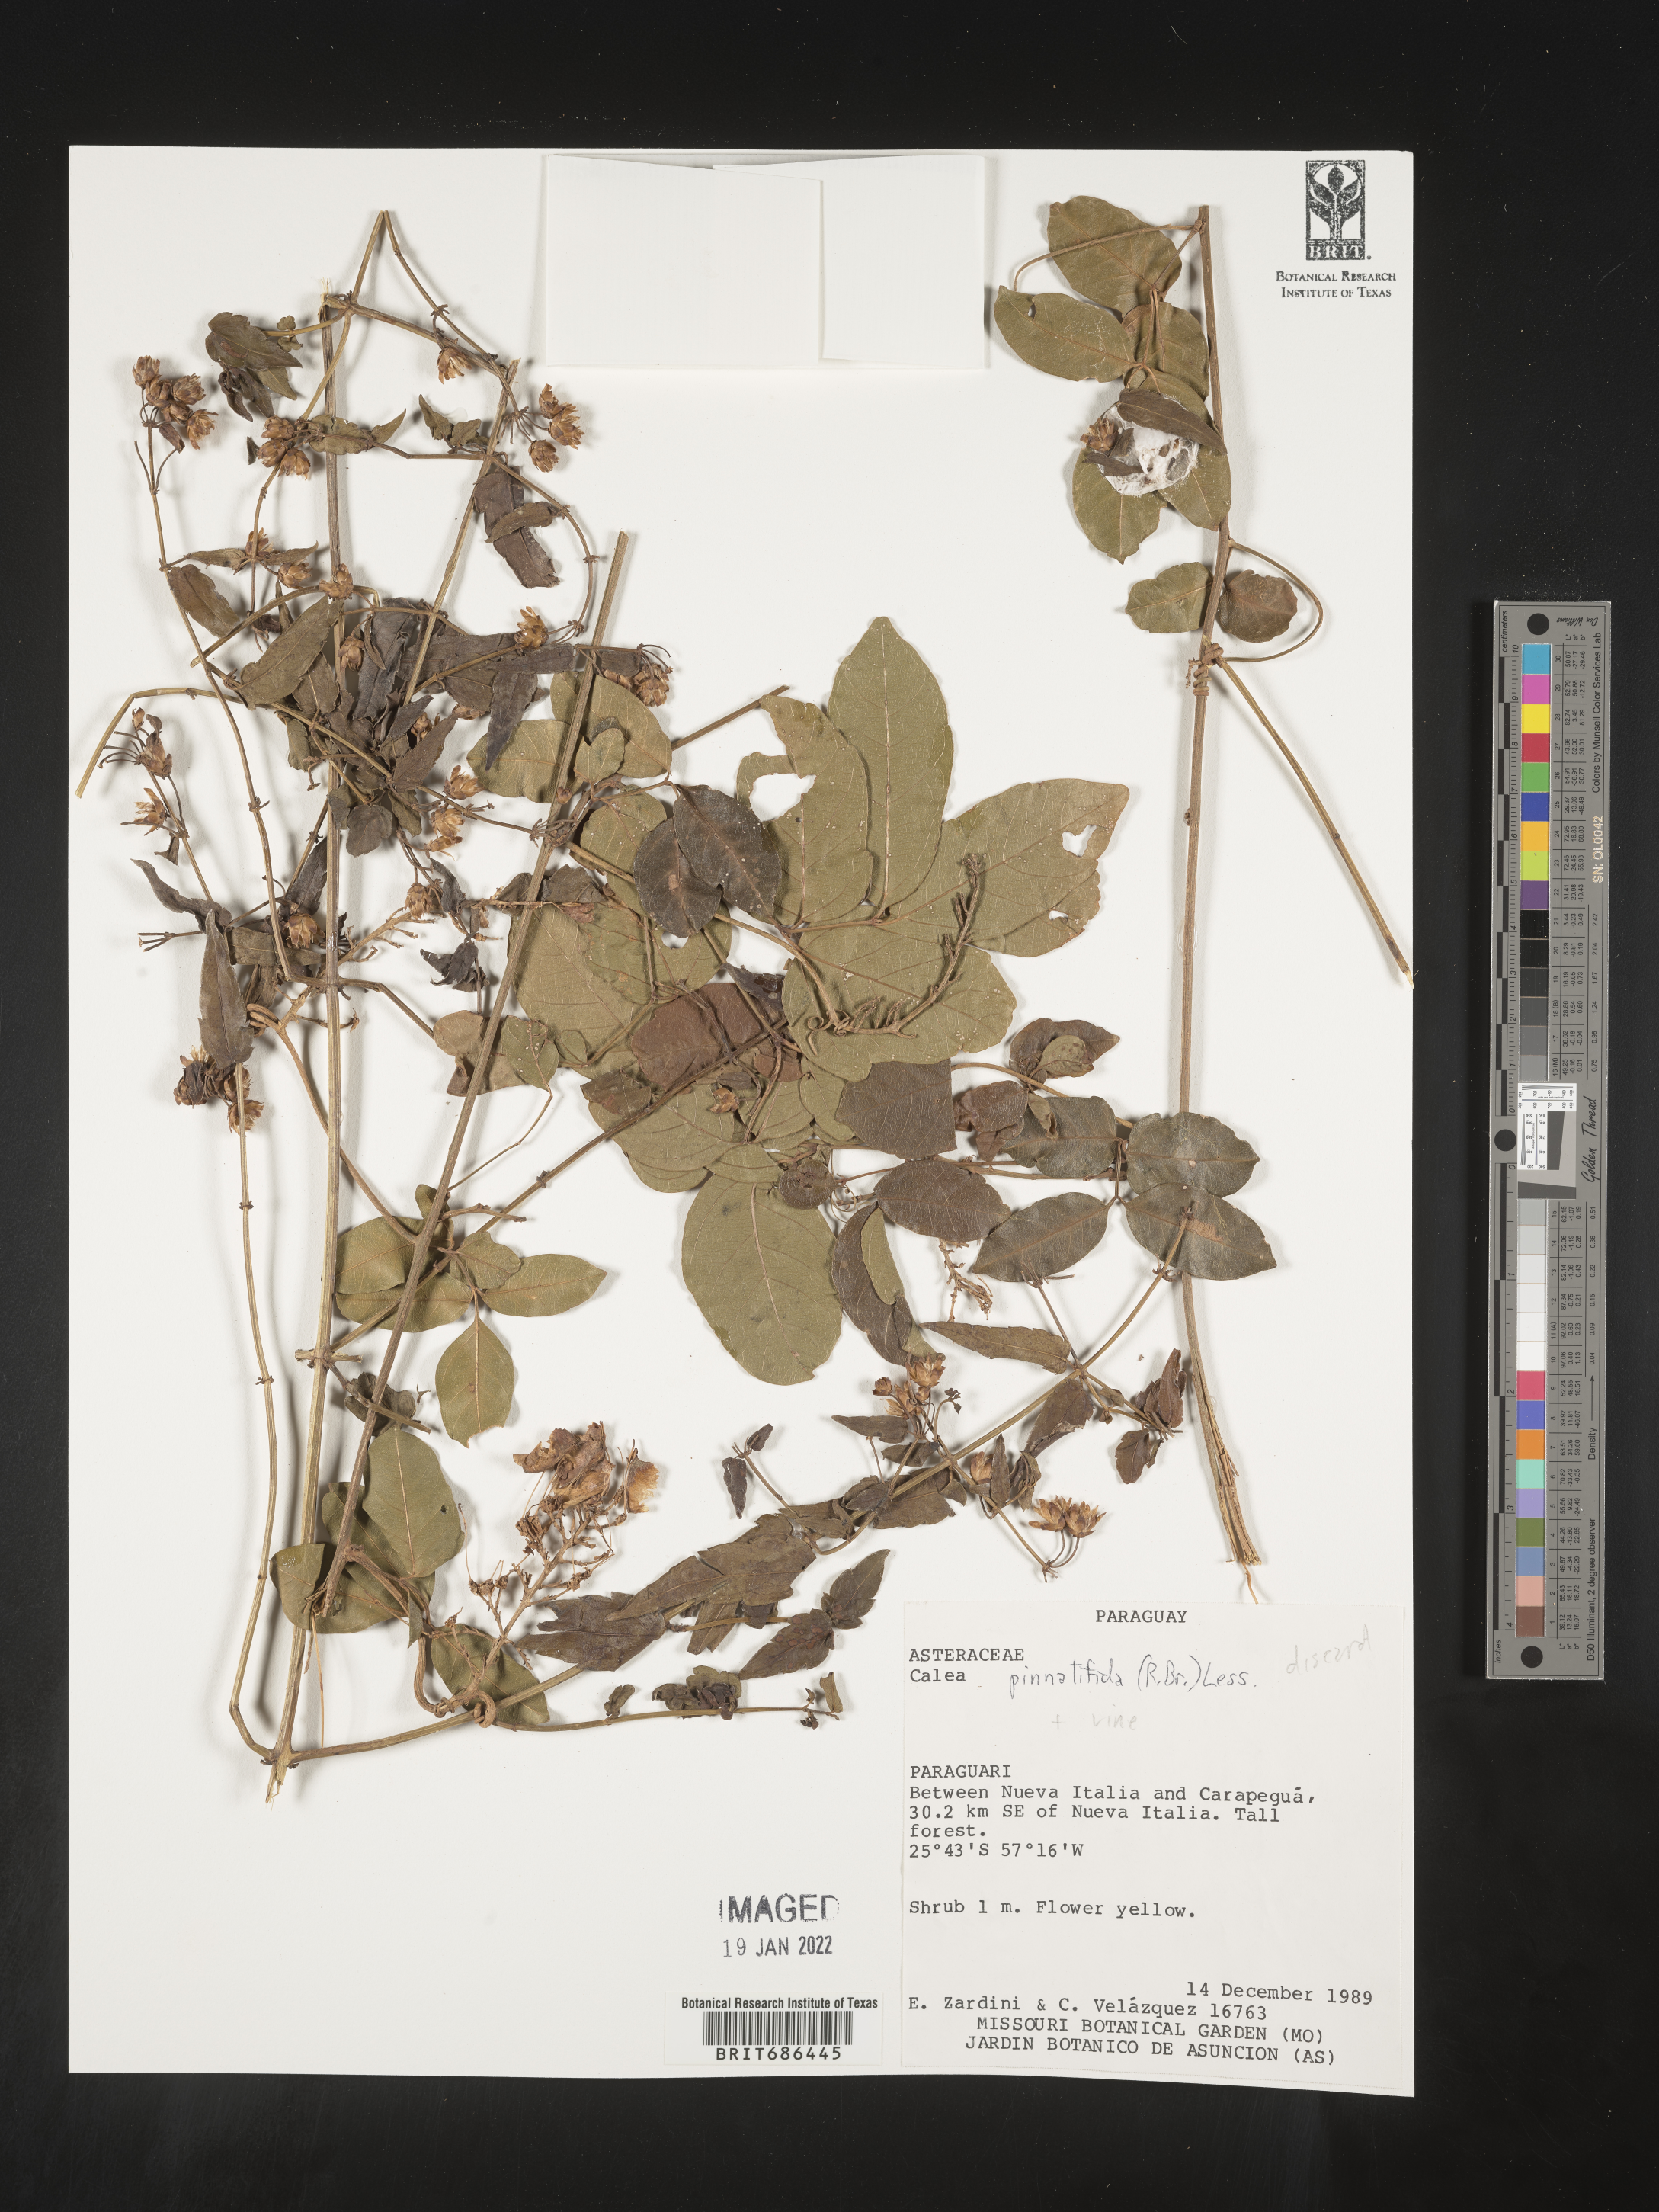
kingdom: Plantae
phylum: Tracheophyta
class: Magnoliopsida
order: Asterales
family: Asteraceae
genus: Calea
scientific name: Calea pinnatifida
